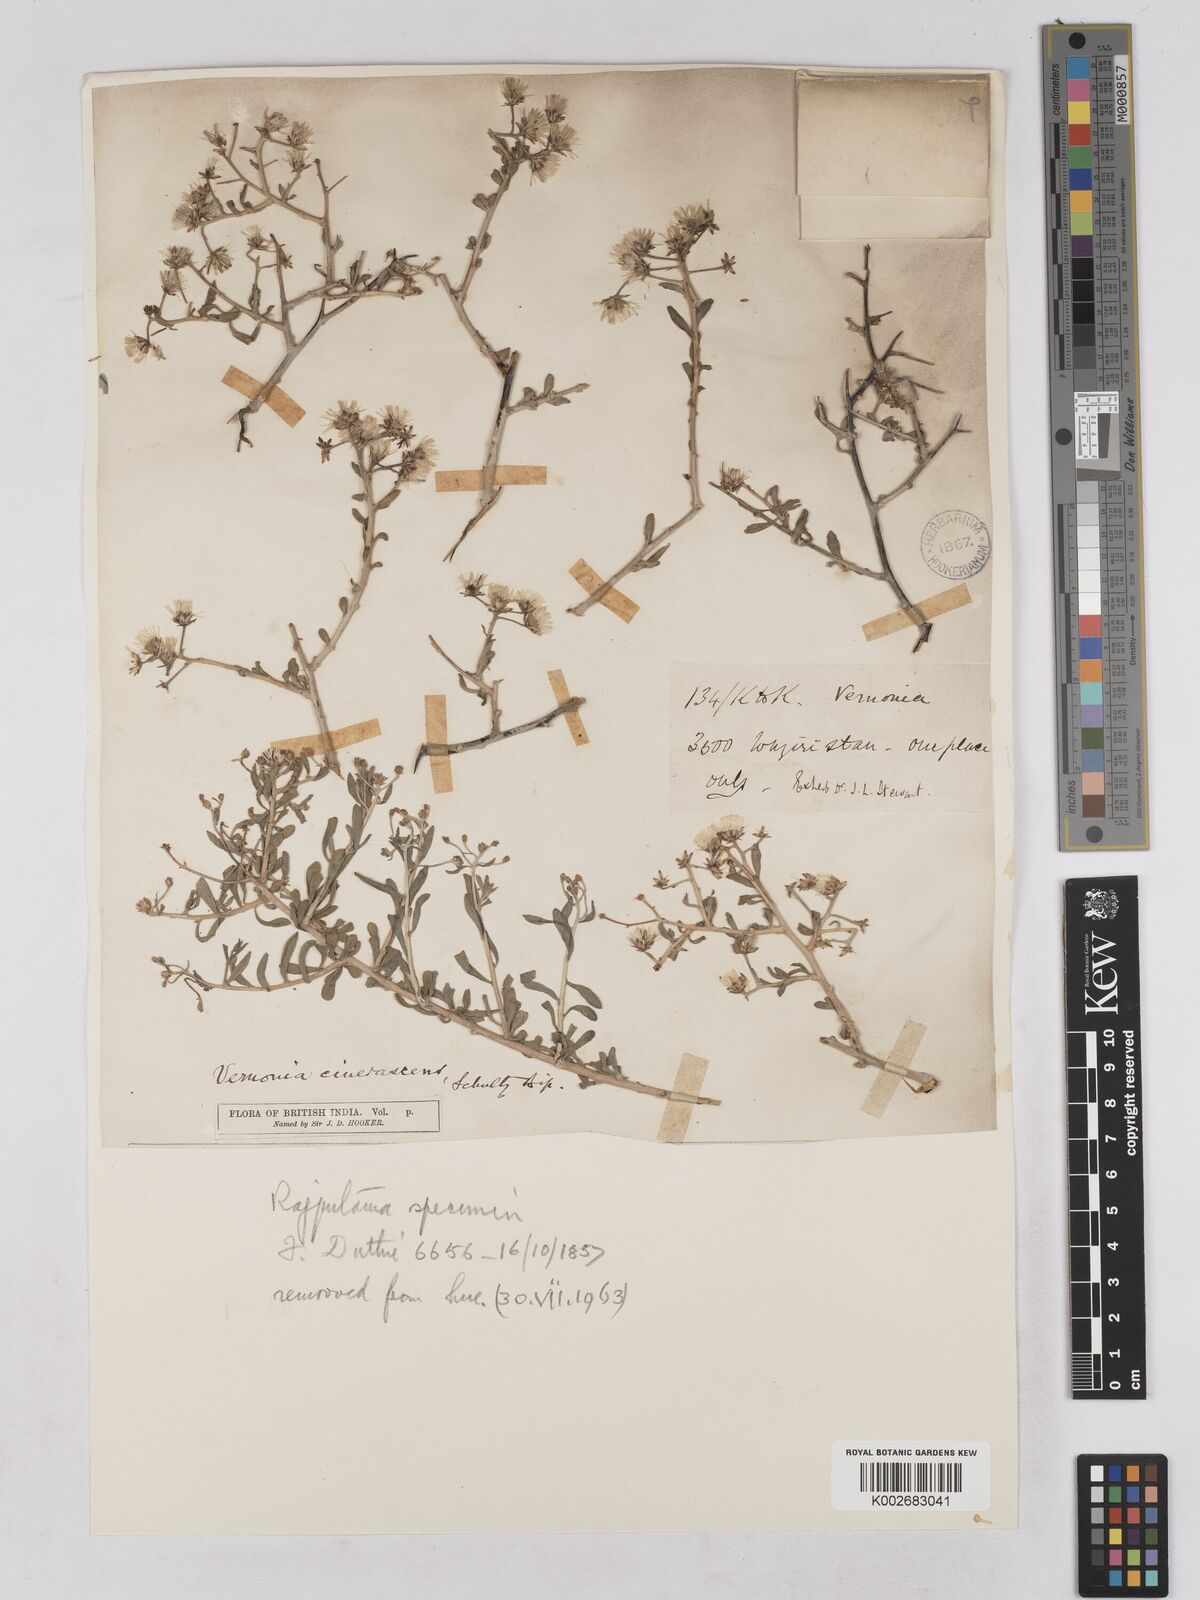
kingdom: Plantae
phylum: Tracheophyta
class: Magnoliopsida
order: Asterales
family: Asteraceae
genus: Orbivestus
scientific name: Orbivestus cinerascens
